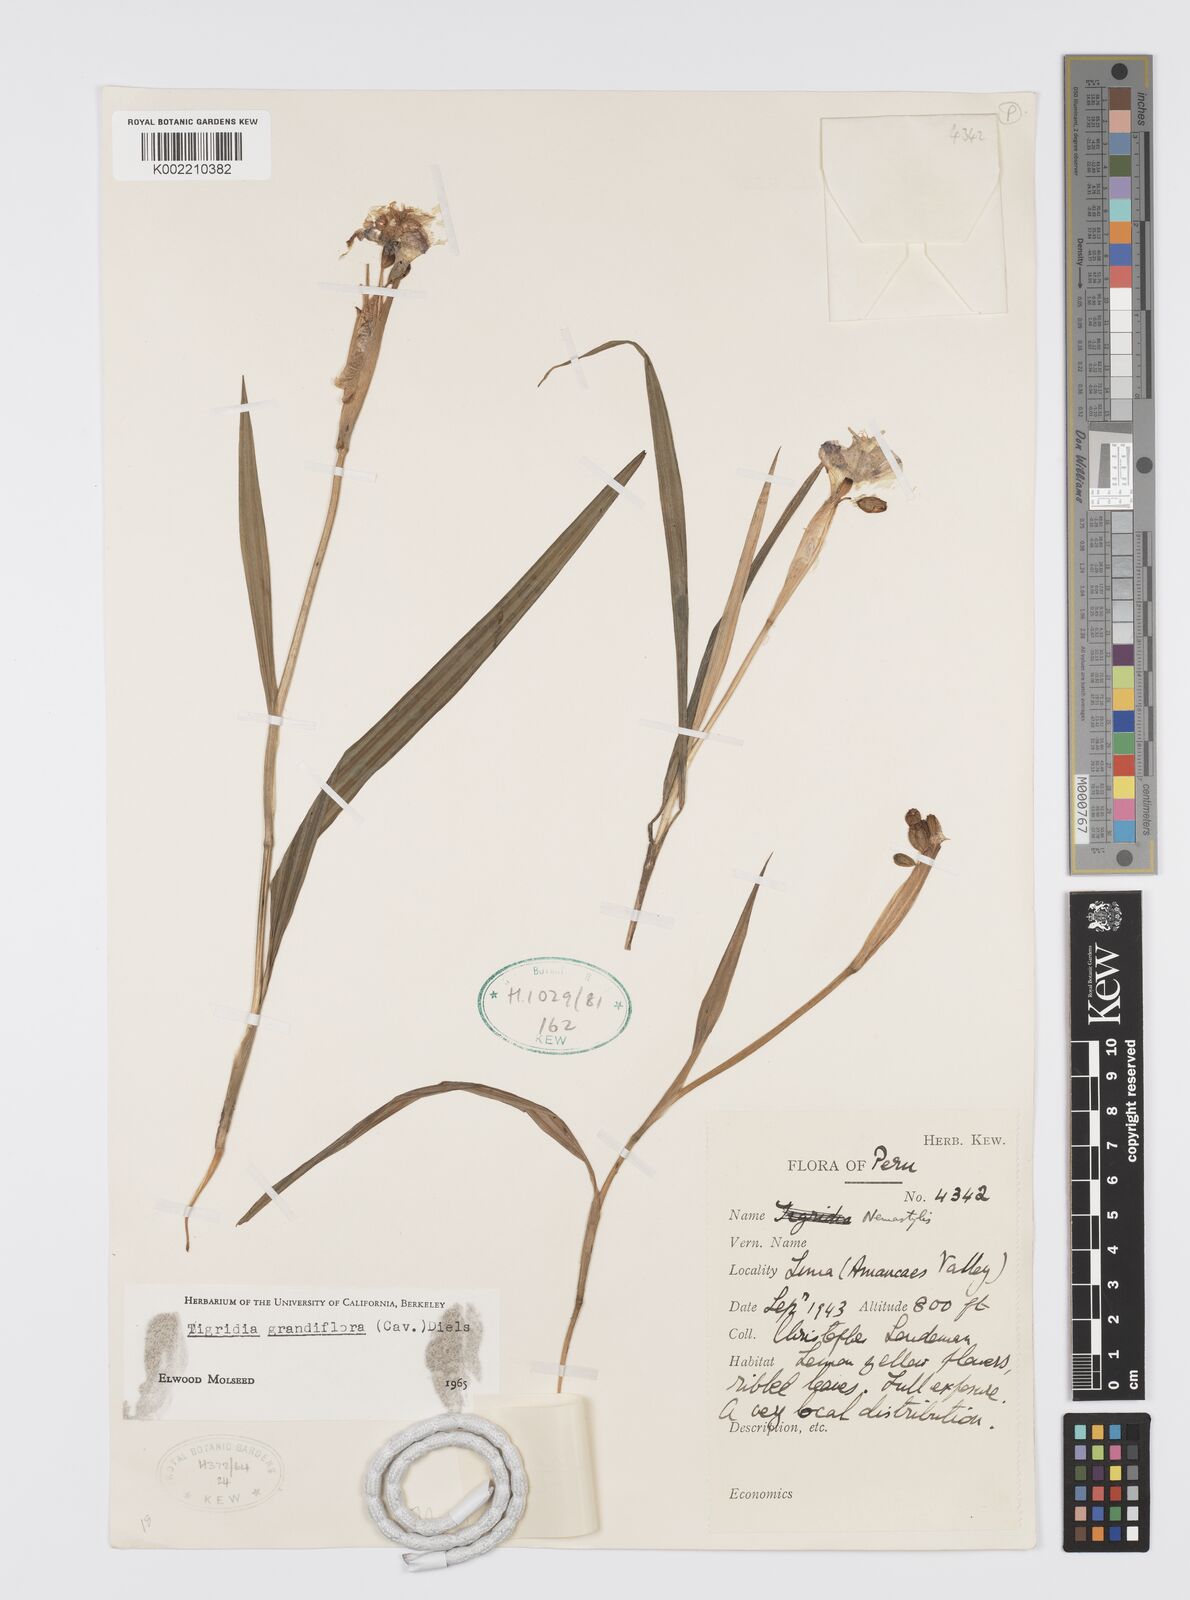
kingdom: Plantae
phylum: Tracheophyta
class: Liliopsida
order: Asparagales
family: Iridaceae
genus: Tigridia
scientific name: Tigridia pavonia
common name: Peacock-flower
